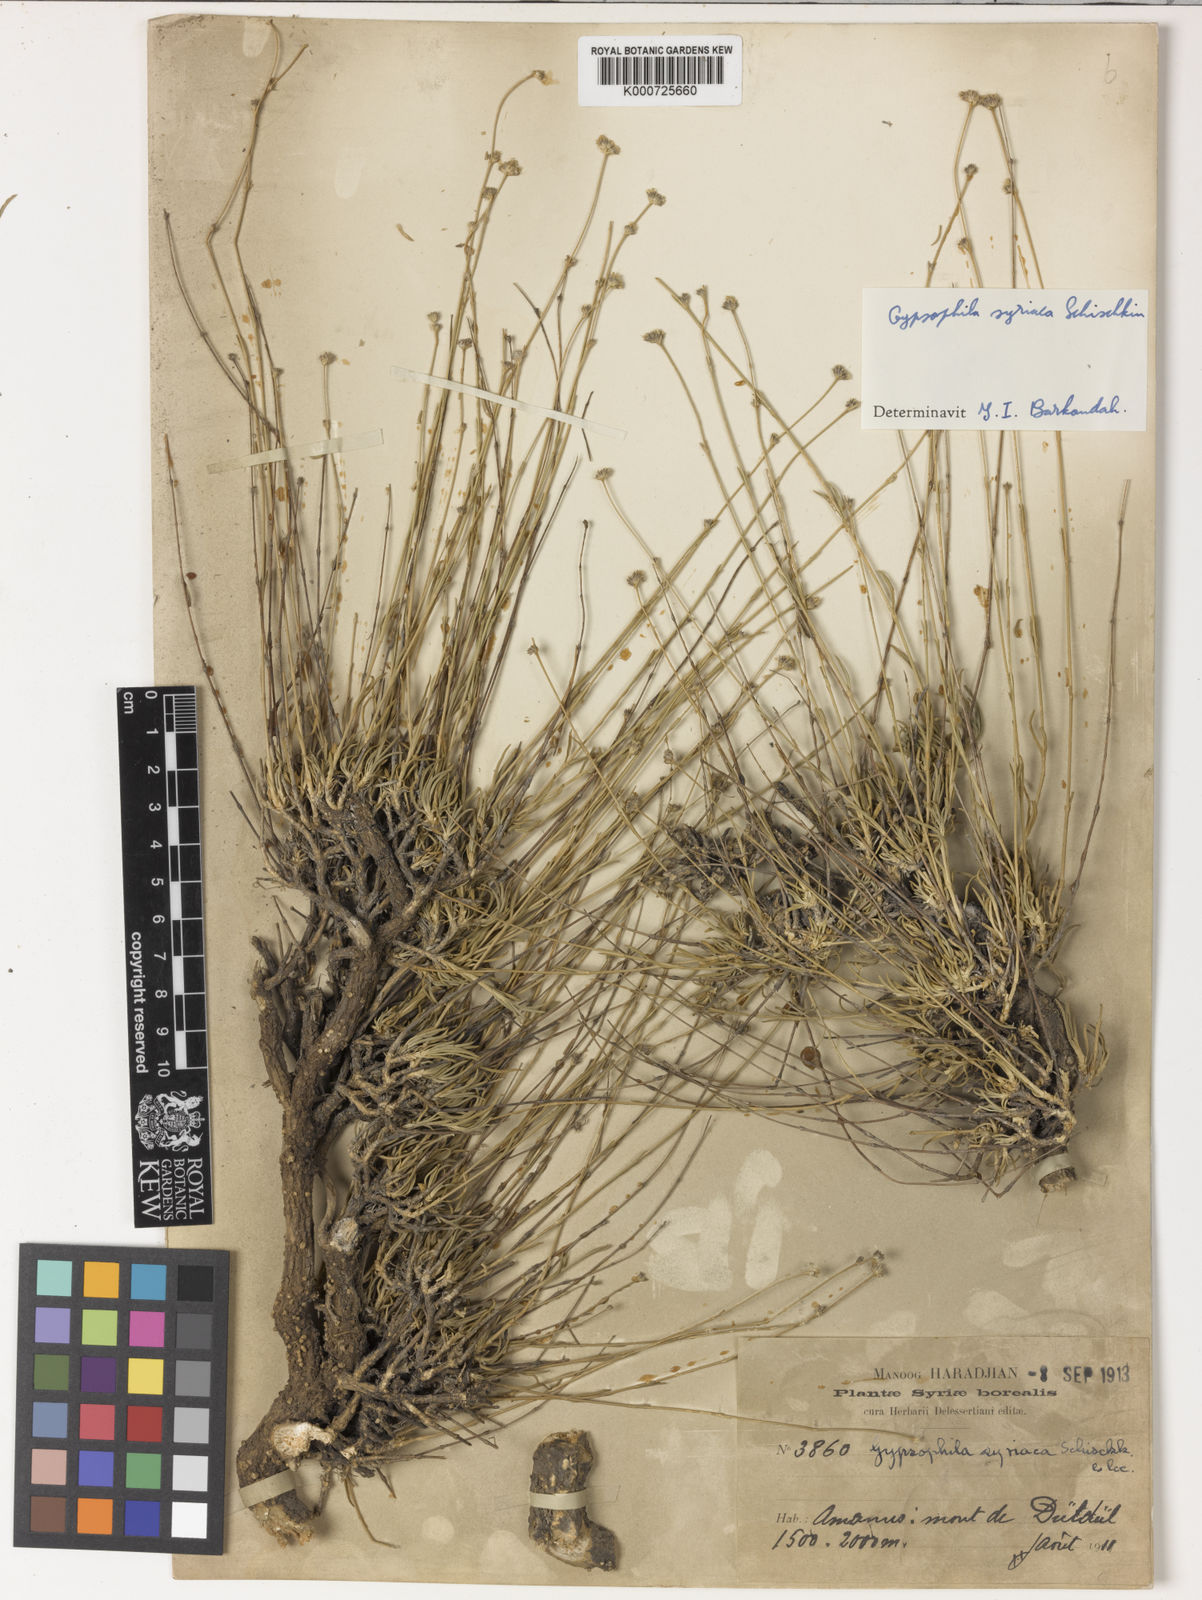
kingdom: Plantae
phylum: Tracheophyta
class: Magnoliopsida
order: Caryophyllales
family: Caryophyllaceae
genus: Gypsophila
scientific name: Gypsophila syriaca
